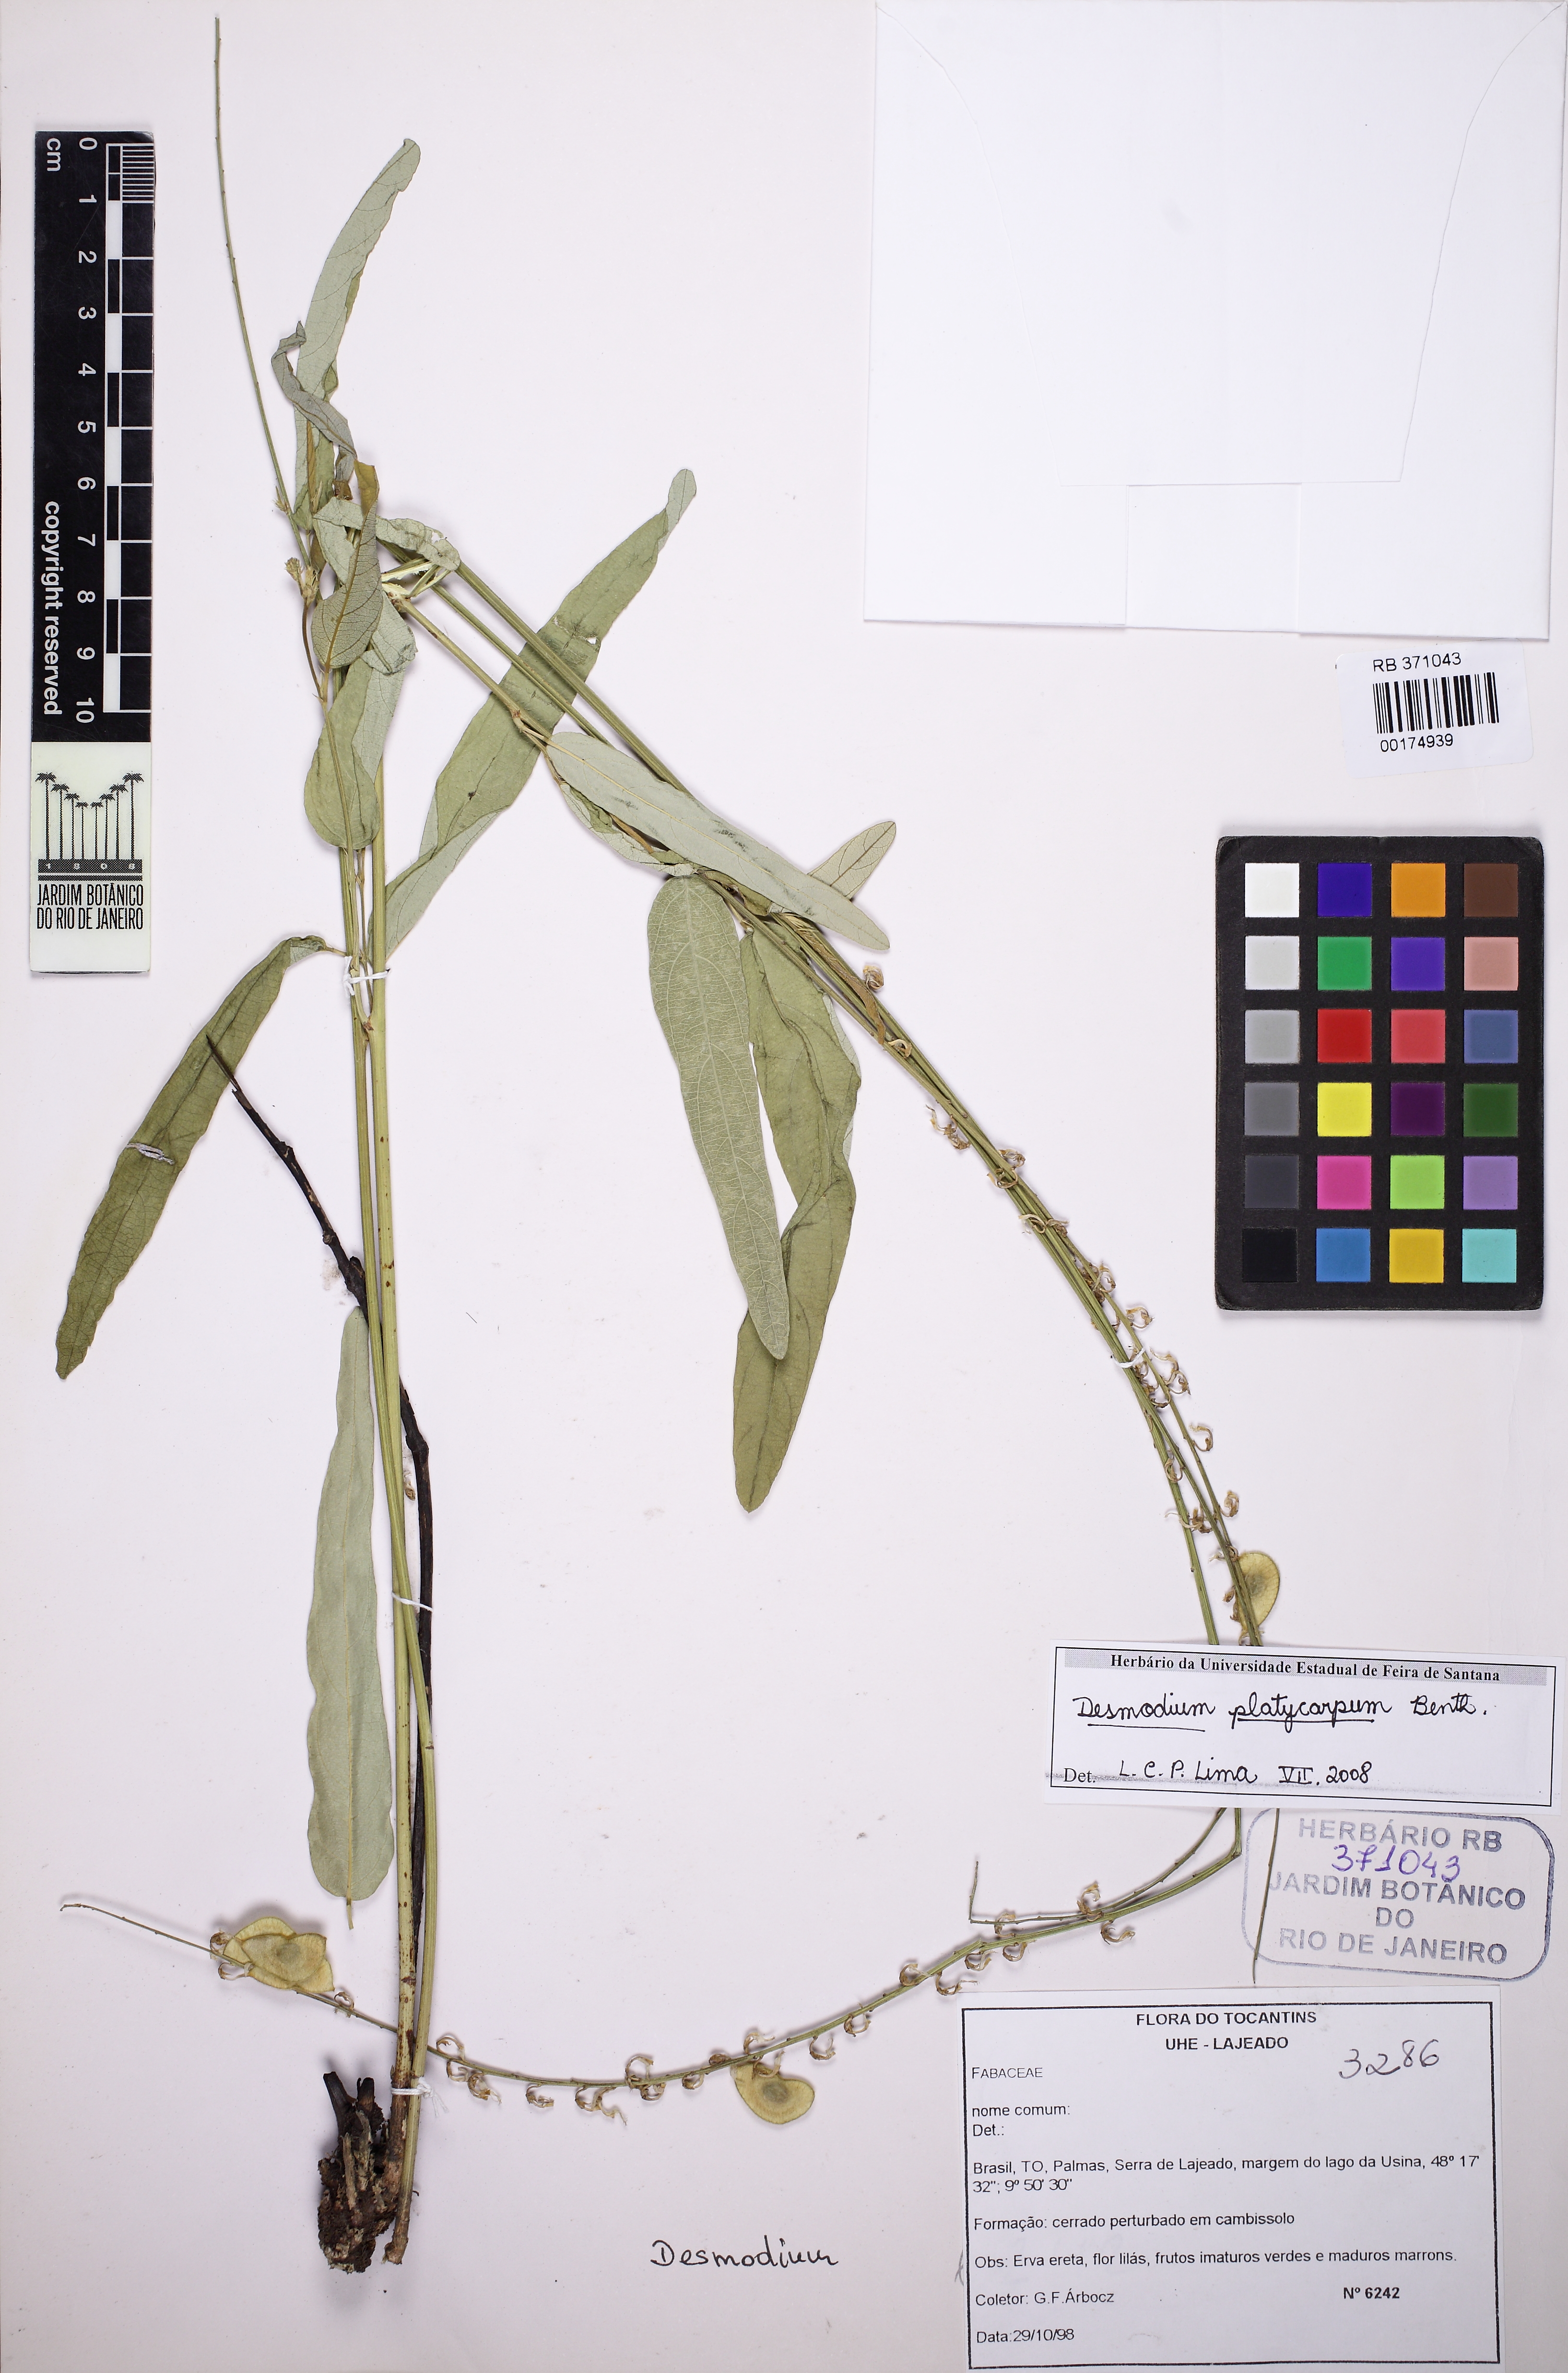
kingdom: Plantae
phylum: Tracheophyta
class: Magnoliopsida
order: Fabales
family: Fabaceae
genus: Desmodium
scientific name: Desmodium platycarpum
